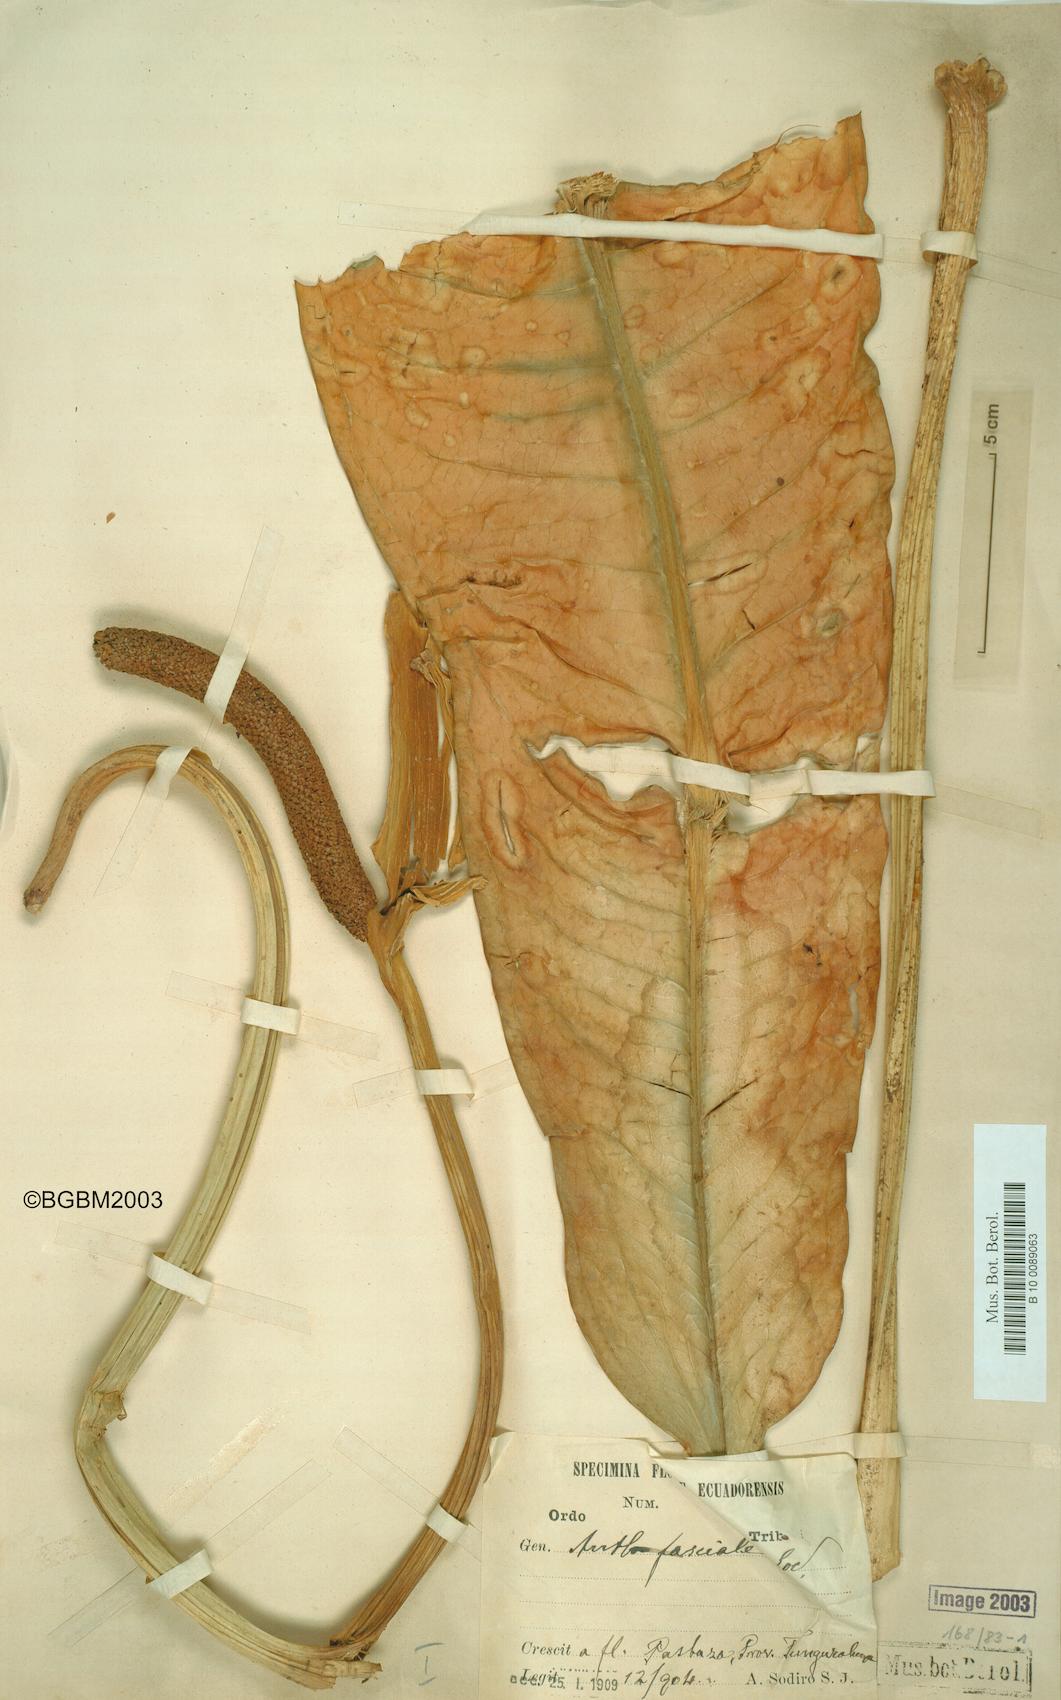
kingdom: Plantae
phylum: Tracheophyta
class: Liliopsida
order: Alismatales
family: Araceae
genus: Anthurium
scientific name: Anthurium fasciale
